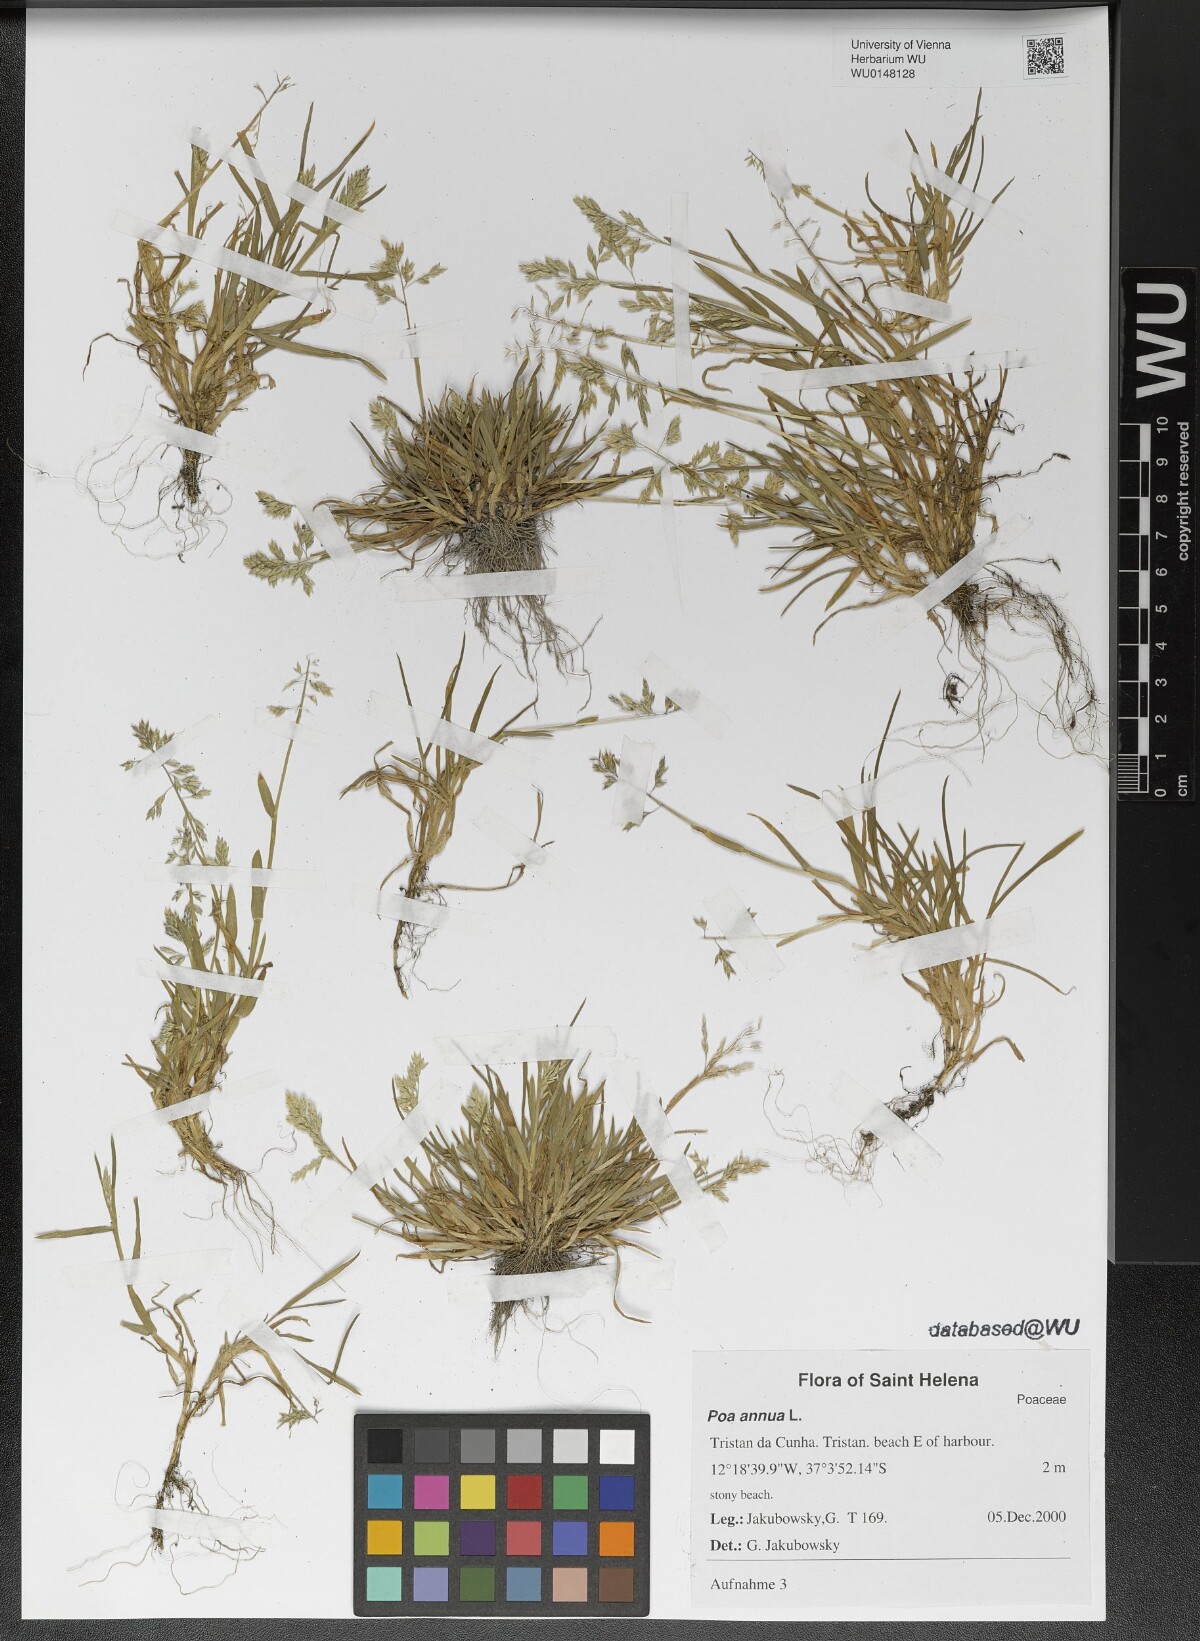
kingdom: Plantae
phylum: Tracheophyta
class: Liliopsida
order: Poales
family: Poaceae
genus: Poa
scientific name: Poa annua
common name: Annual bluegrass
